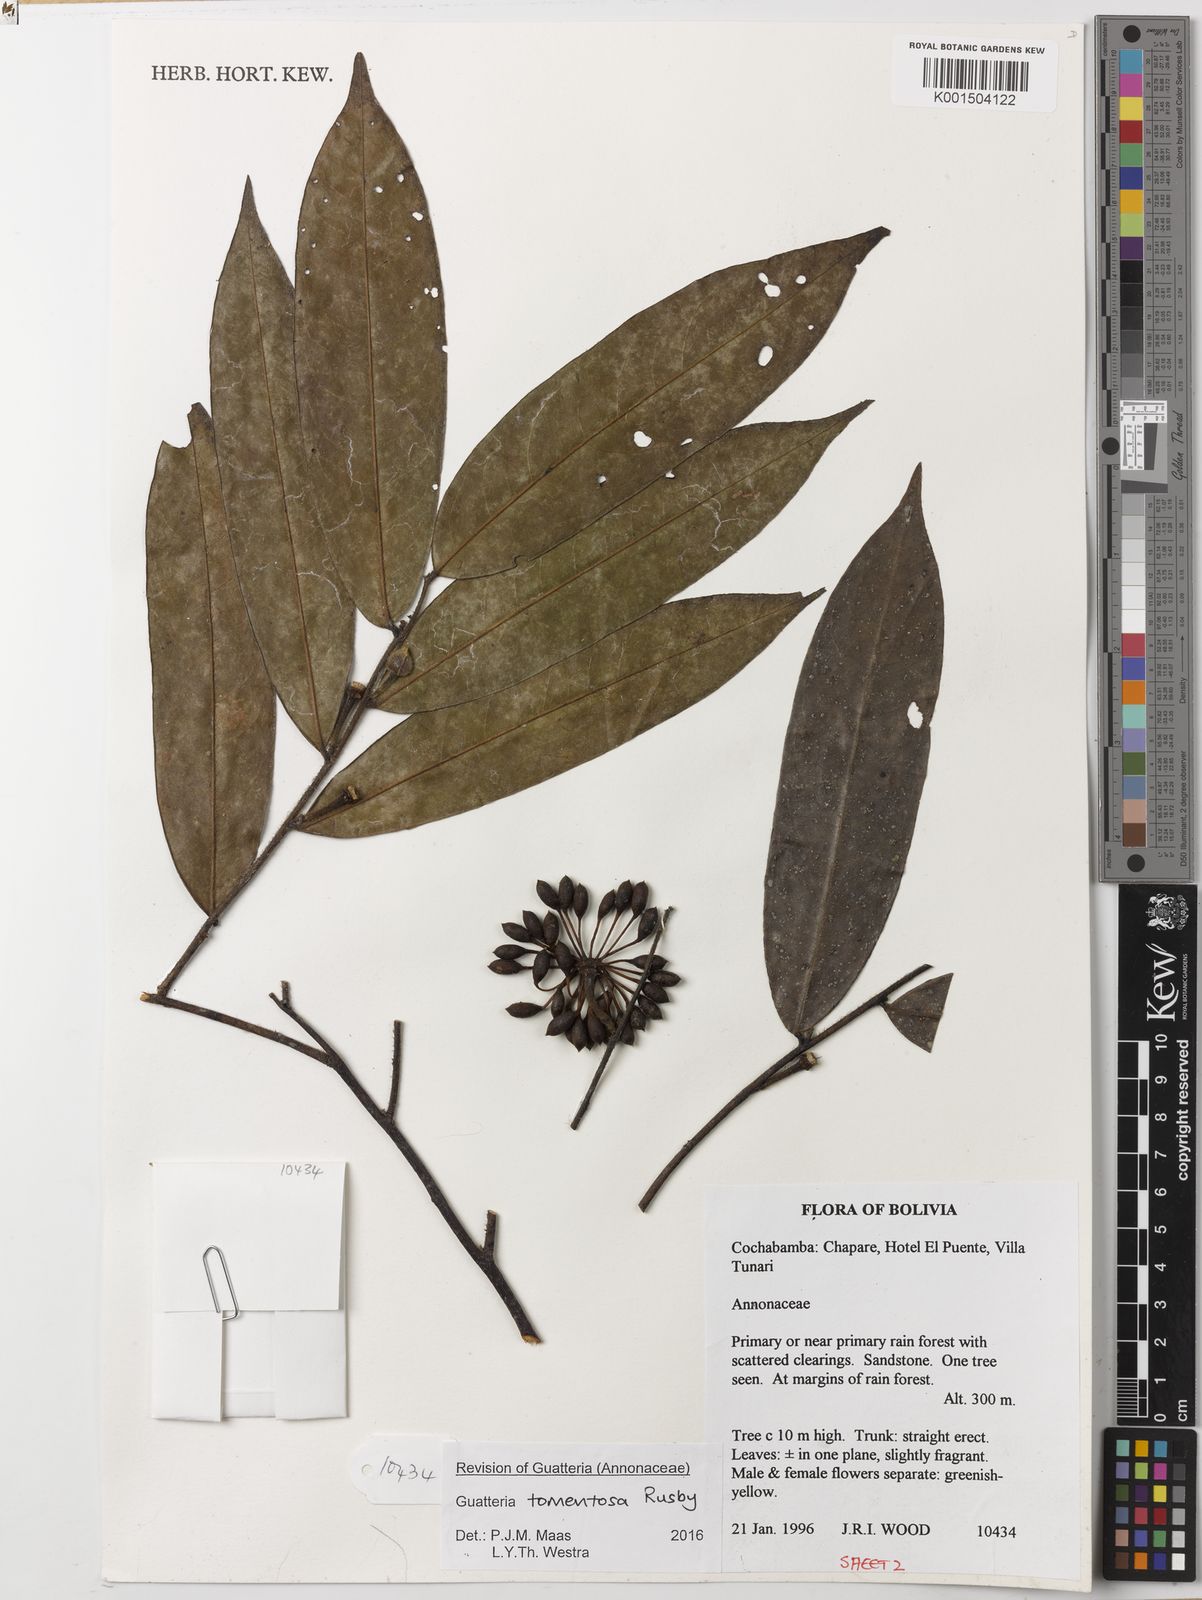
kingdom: Plantae
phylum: Tracheophyta
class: Magnoliopsida
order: Magnoliales
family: Annonaceae
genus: Guatteria
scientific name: Guatteria tomentosa
